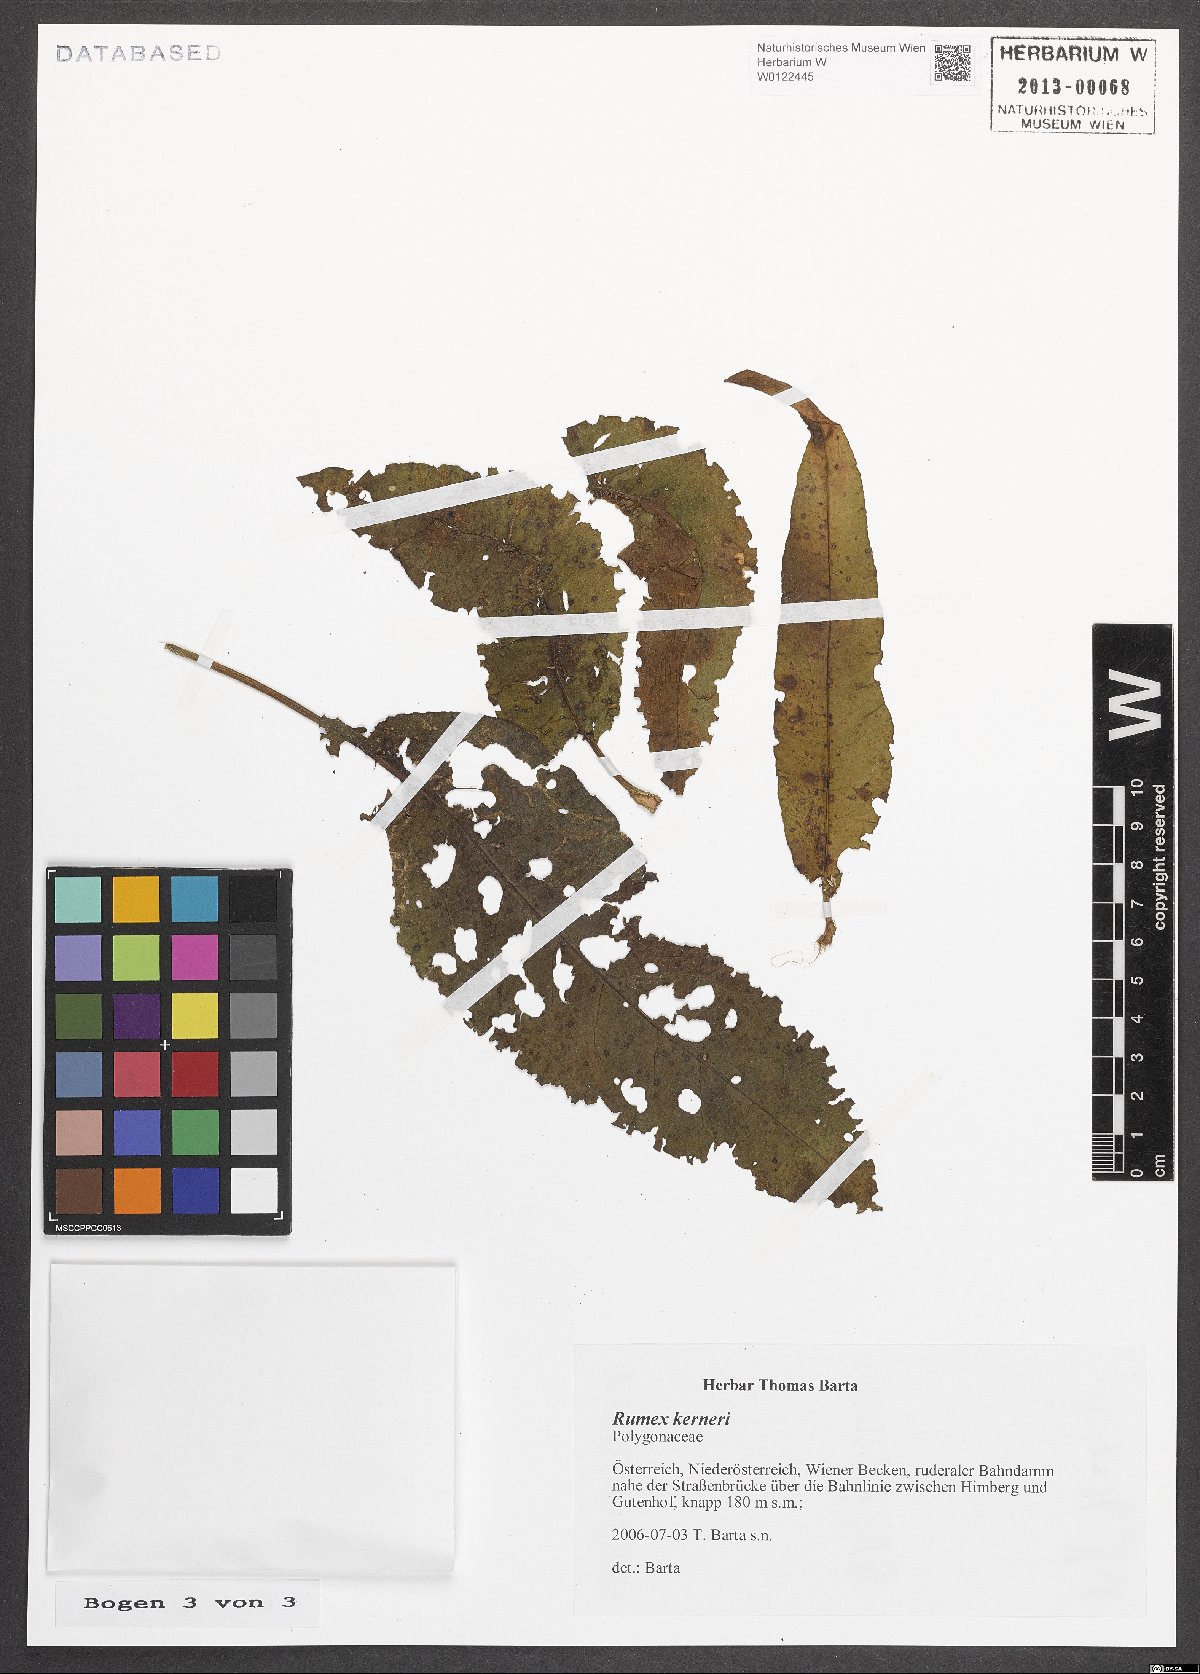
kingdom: Plantae
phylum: Tracheophyta
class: Magnoliopsida
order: Caryophyllales
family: Polygonaceae
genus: Rumex
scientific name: Rumex kerneri
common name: Kerner's dock
